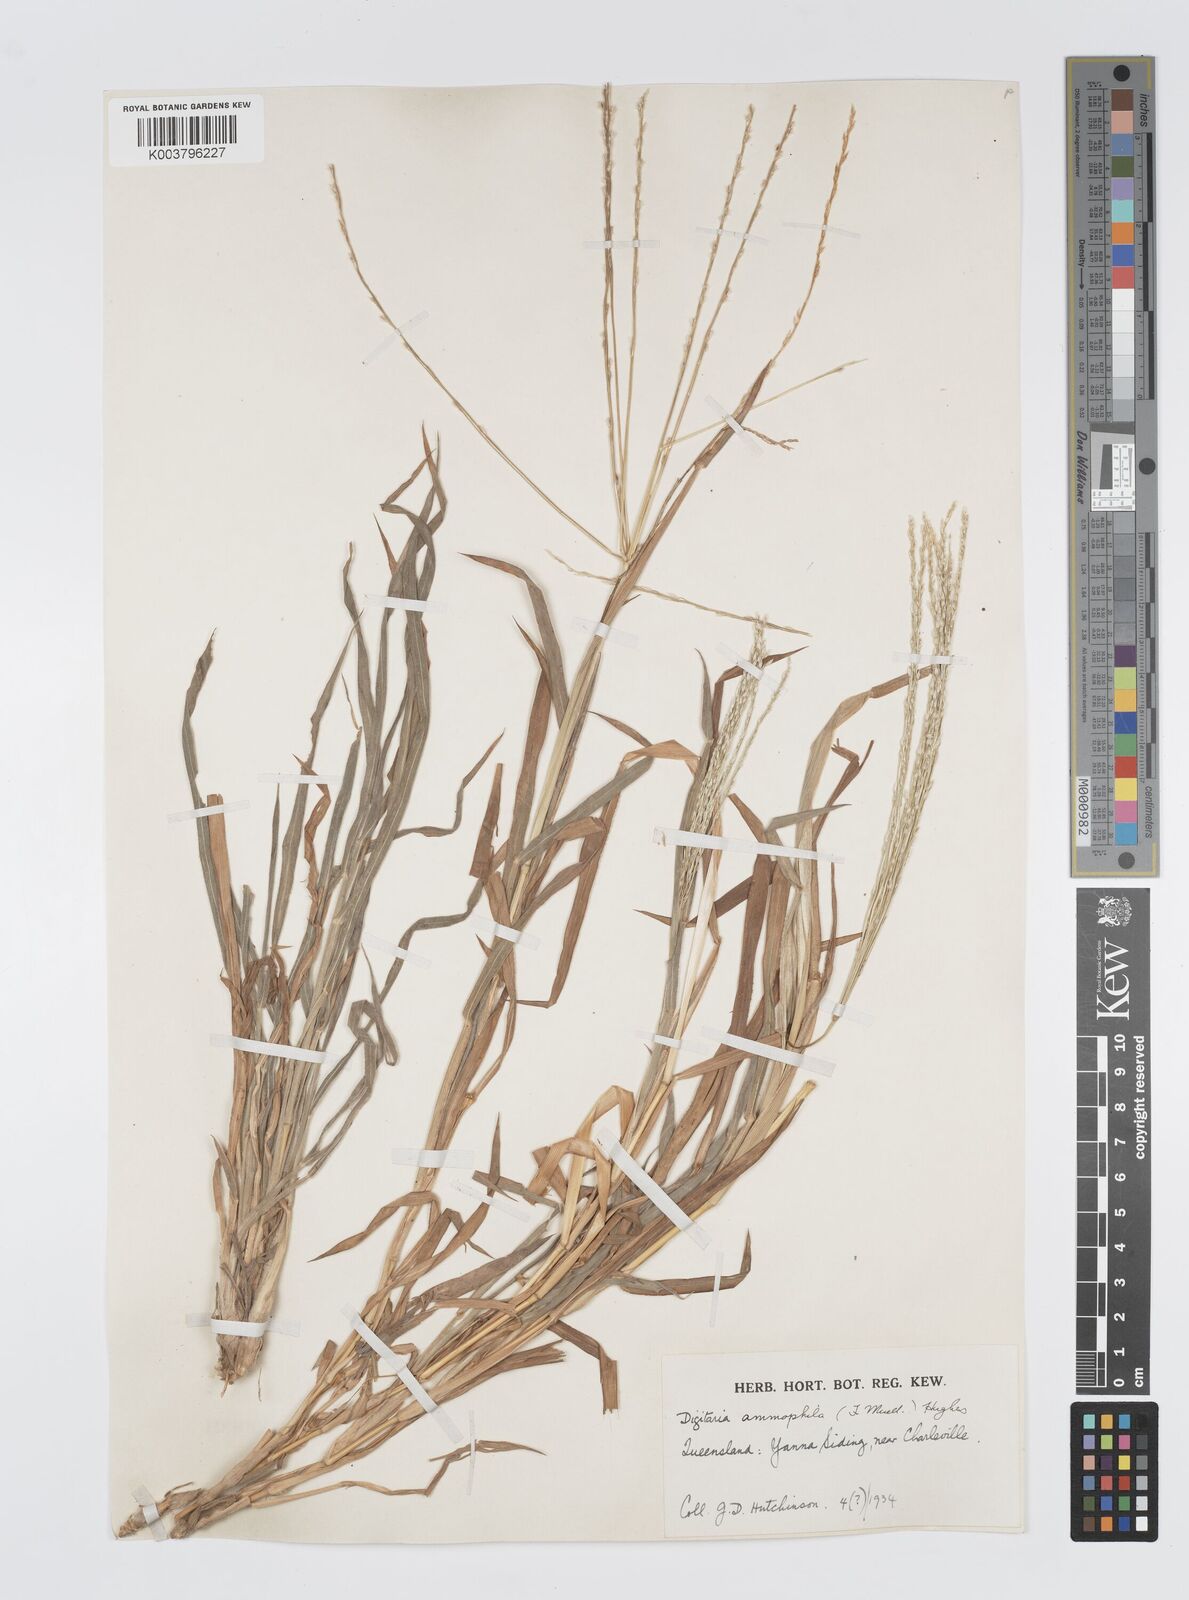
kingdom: Plantae
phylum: Tracheophyta
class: Liliopsida
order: Poales
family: Poaceae
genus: Digitaria
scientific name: Digitaria ammophila
